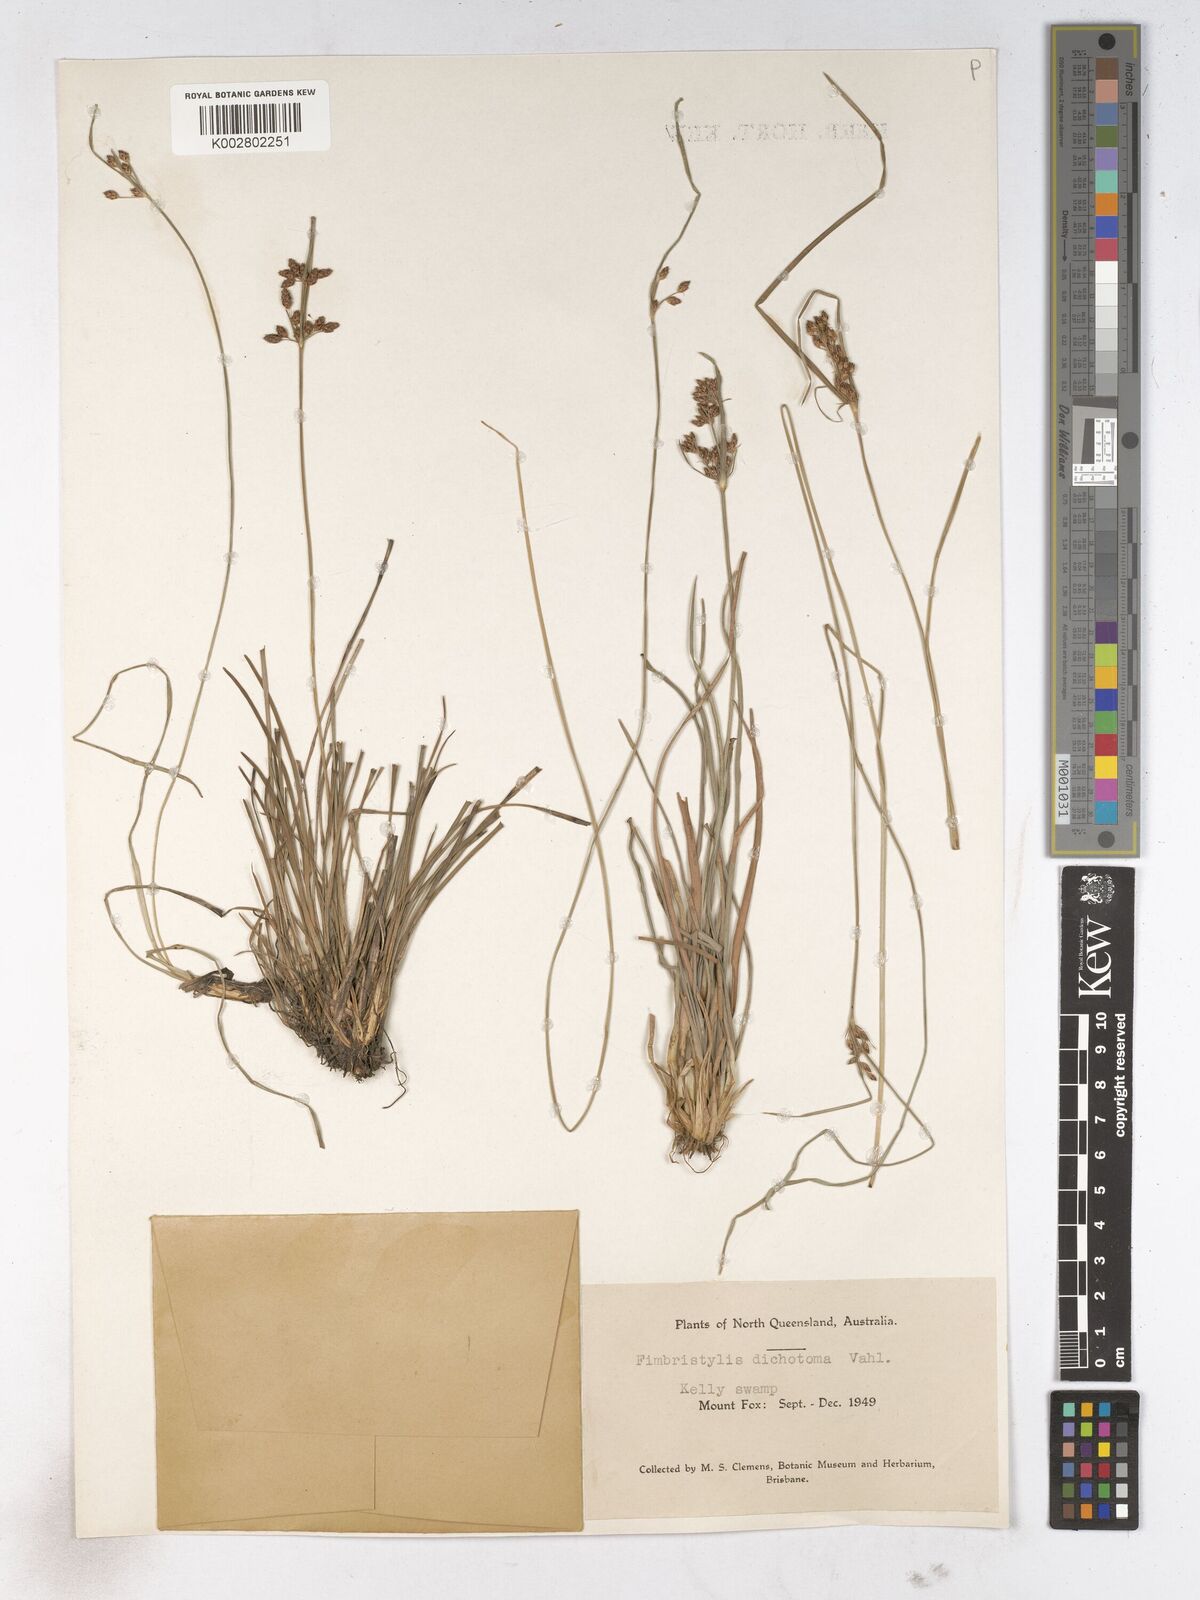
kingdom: Plantae
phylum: Tracheophyta
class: Liliopsida
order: Poales
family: Cyperaceae
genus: Fimbristylis
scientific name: Fimbristylis dichotoma
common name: Forked fimbry
